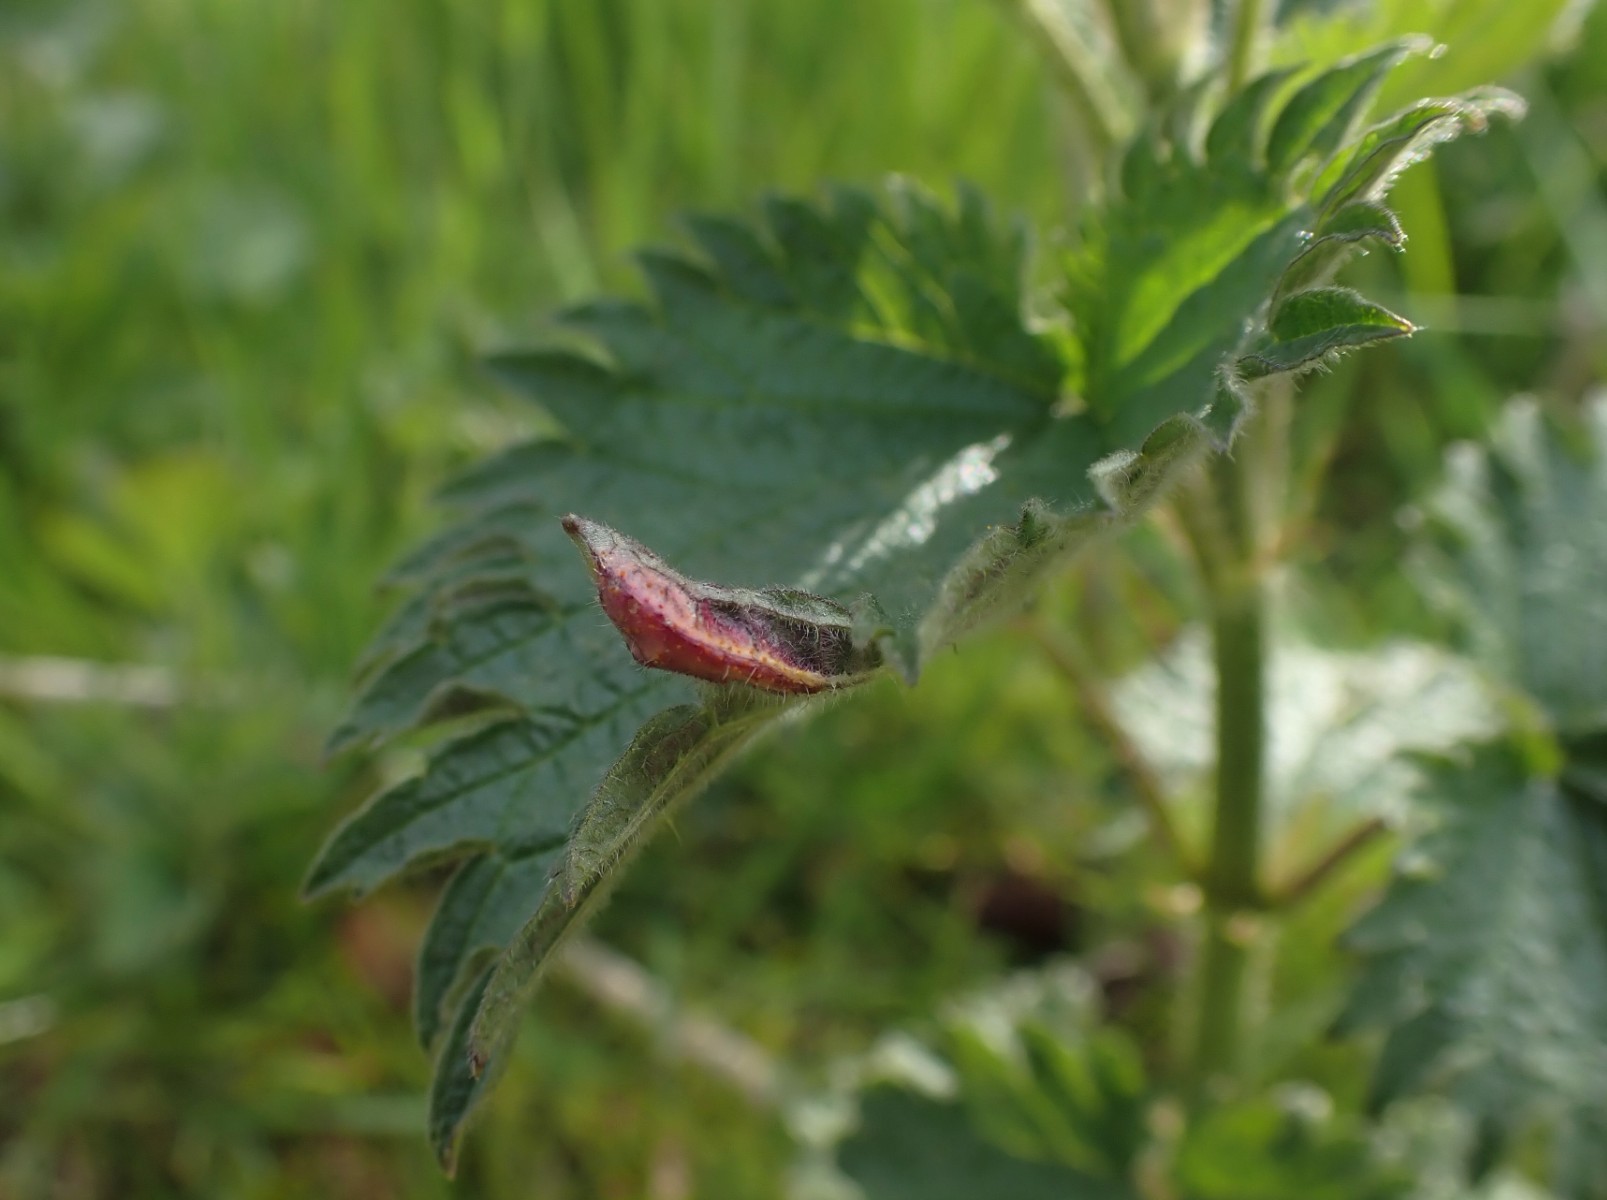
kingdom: Fungi
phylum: Basidiomycota
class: Pucciniomycetes
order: Pucciniales
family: Pucciniaceae
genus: Puccinia
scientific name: Puccinia urticata
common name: nældegalle-tvecellerust
